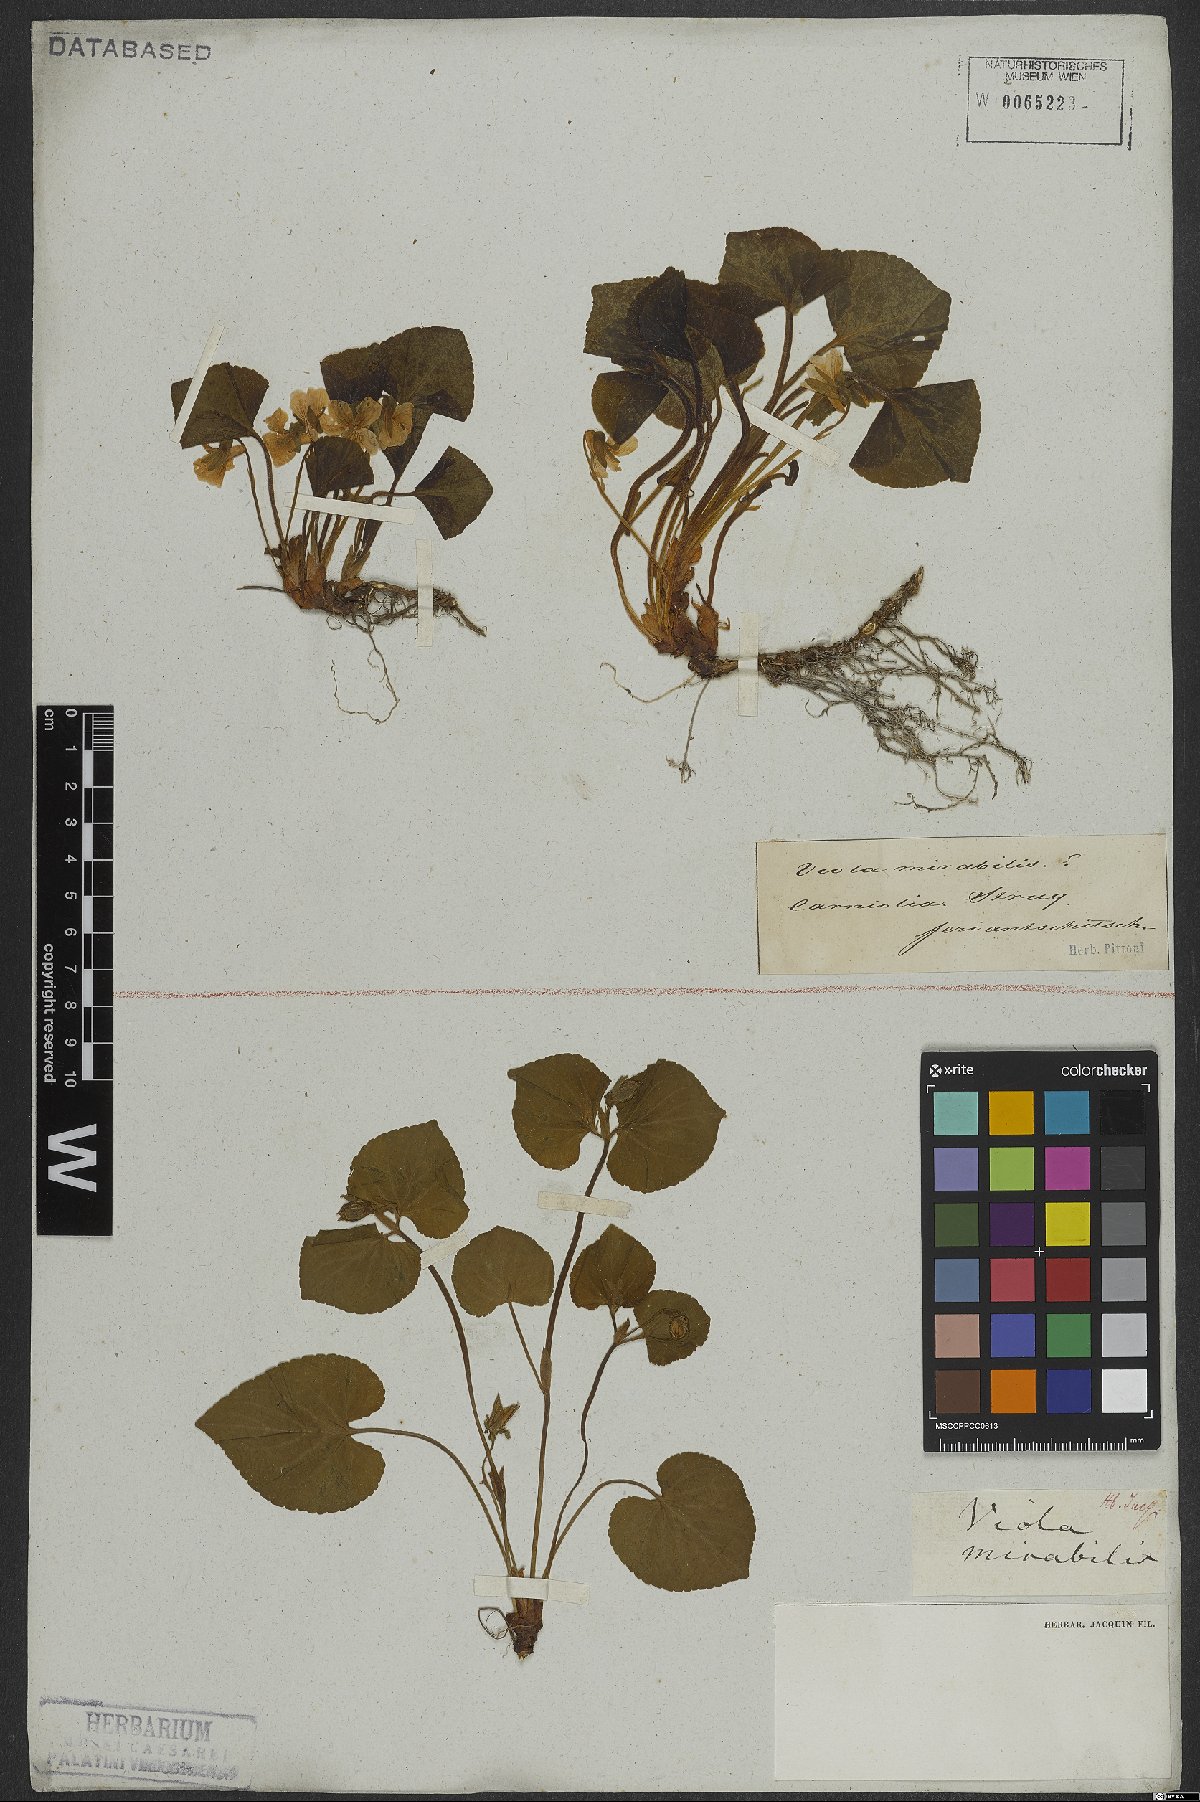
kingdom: Plantae
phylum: Tracheophyta
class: Magnoliopsida
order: Malpighiales
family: Violaceae
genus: Viola
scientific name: Viola mirabilis
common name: Wonder violet
